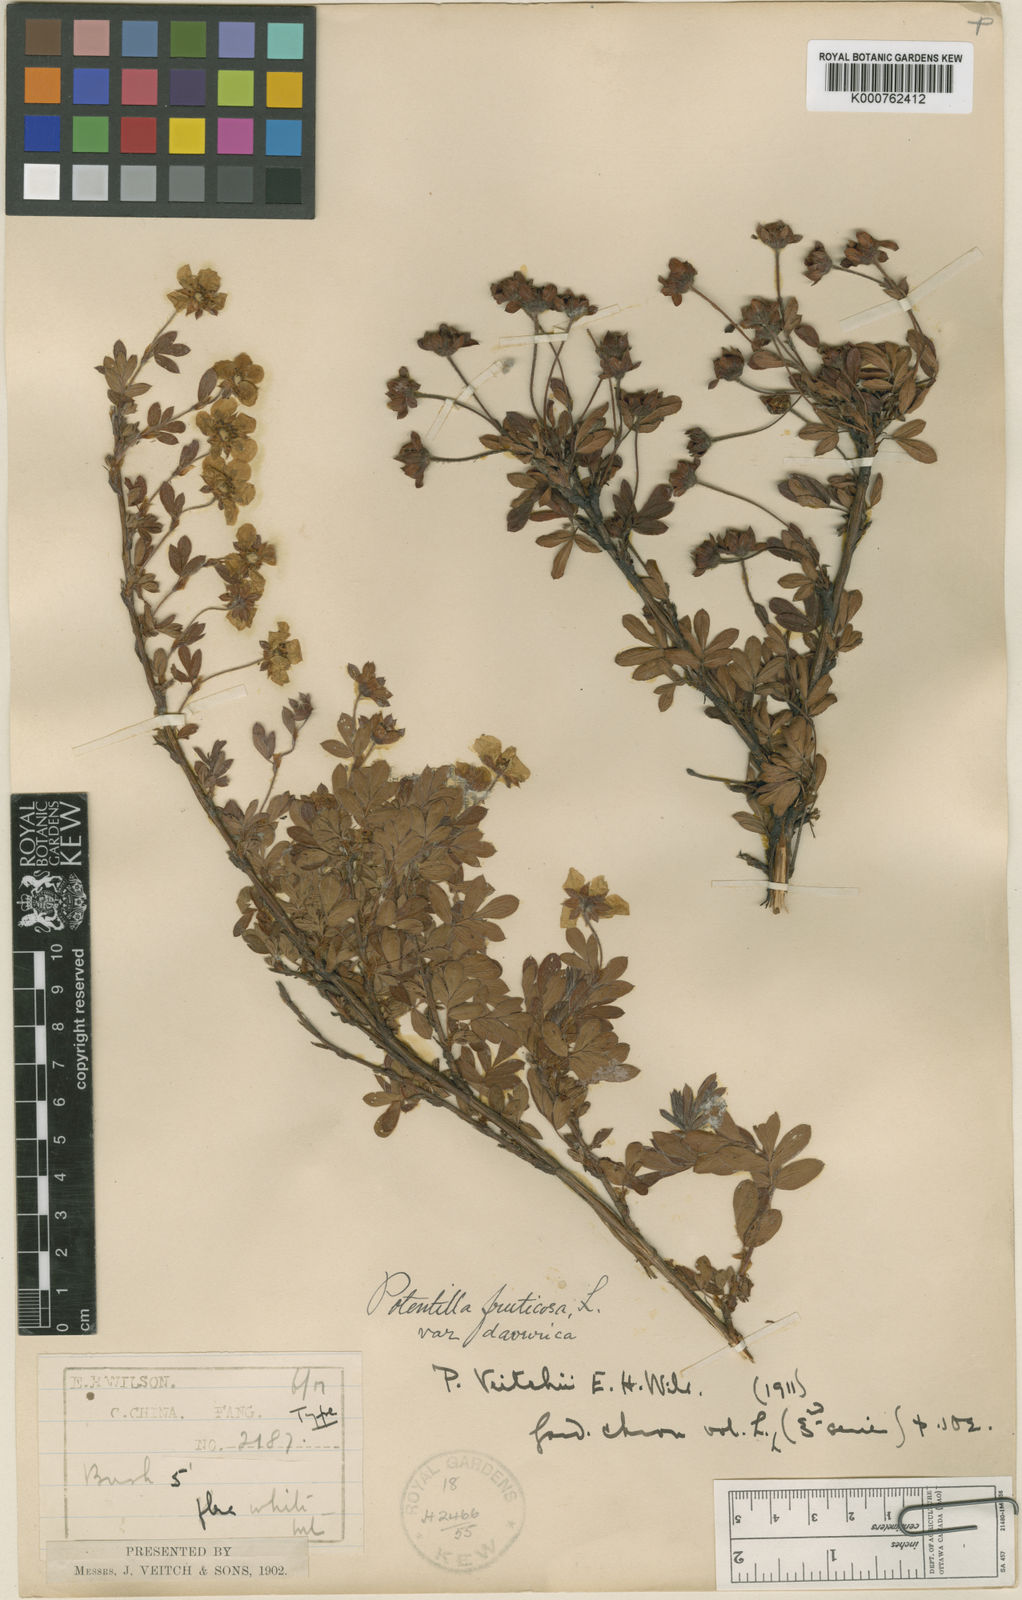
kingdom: Plantae
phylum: Tracheophyta
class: Magnoliopsida
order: Rosales
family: Rosaceae
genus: Dasiphora
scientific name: Dasiphora fruticosa
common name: Shrubby cinquefoil
